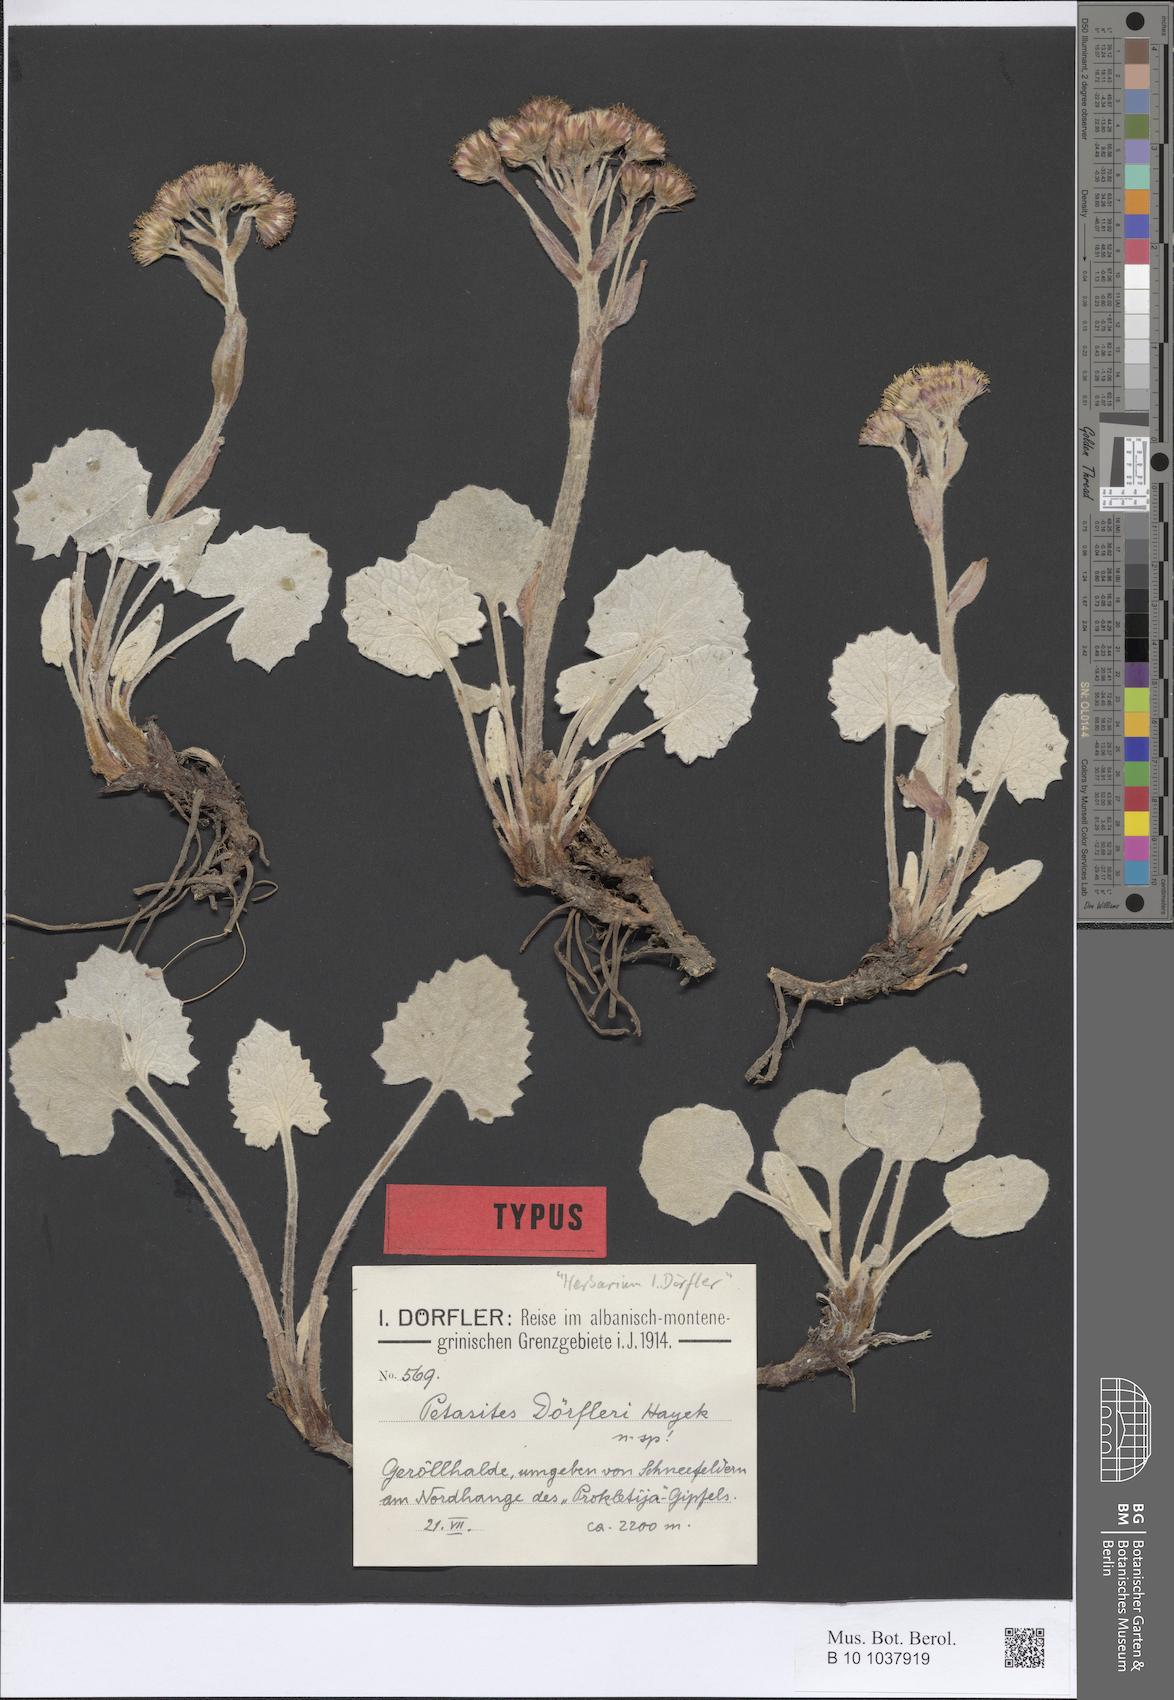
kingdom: Plantae
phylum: Tracheophyta
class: Magnoliopsida
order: Asterales
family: Asteraceae
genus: Petasites
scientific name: Petasites doerfleri
